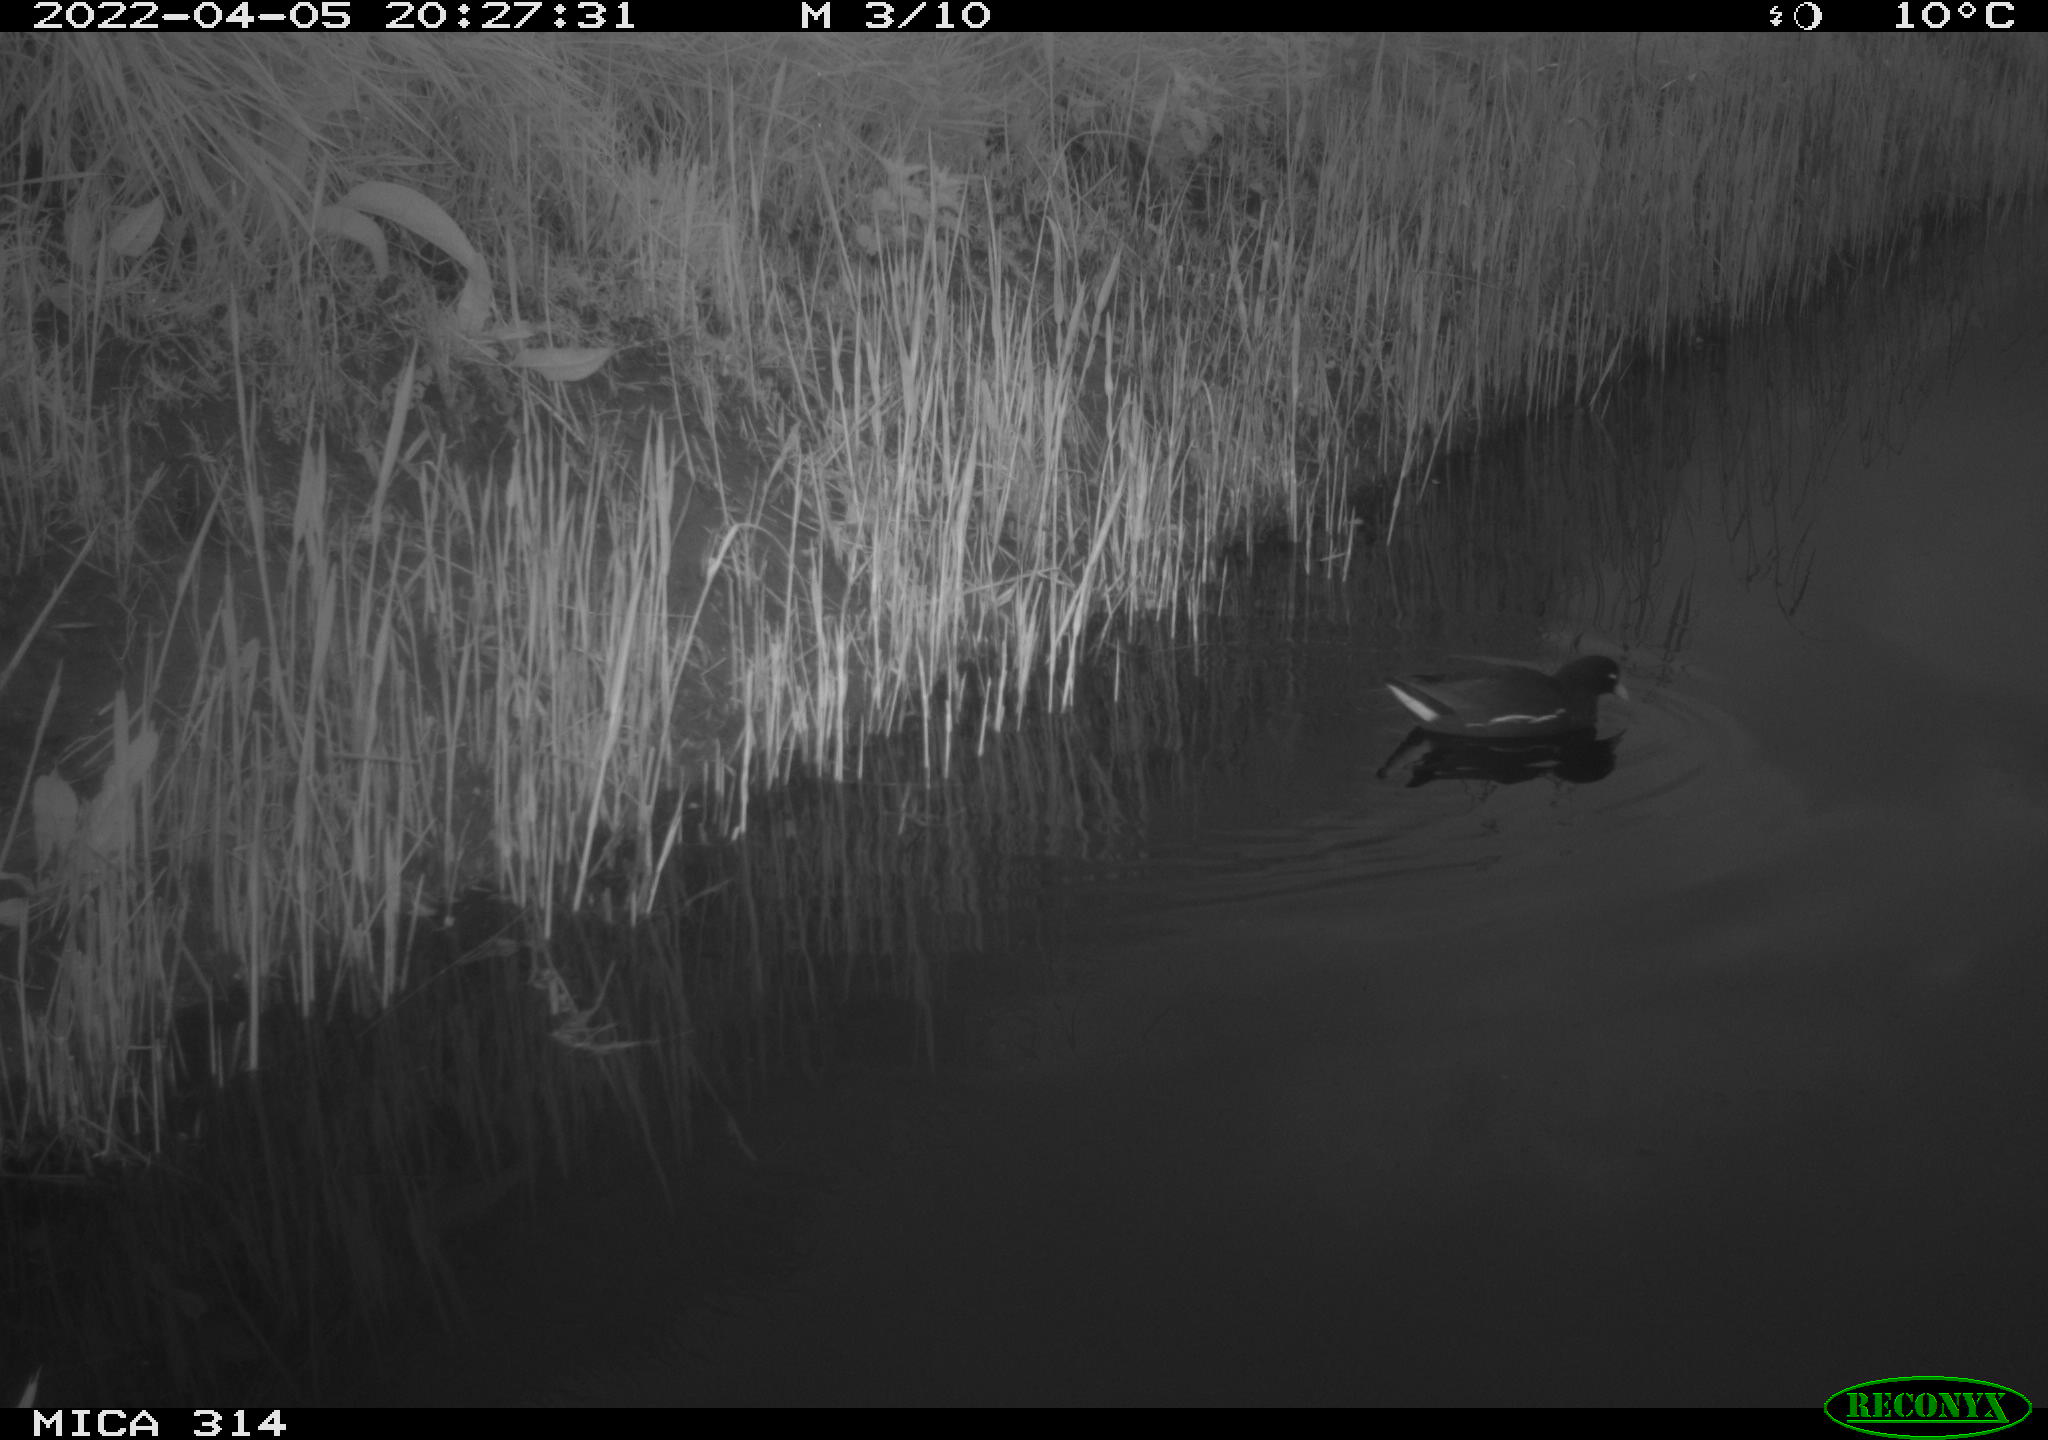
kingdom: Animalia
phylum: Chordata
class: Aves
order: Gruiformes
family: Rallidae
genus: Gallinula
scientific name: Gallinula chloropus
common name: Common moorhen
